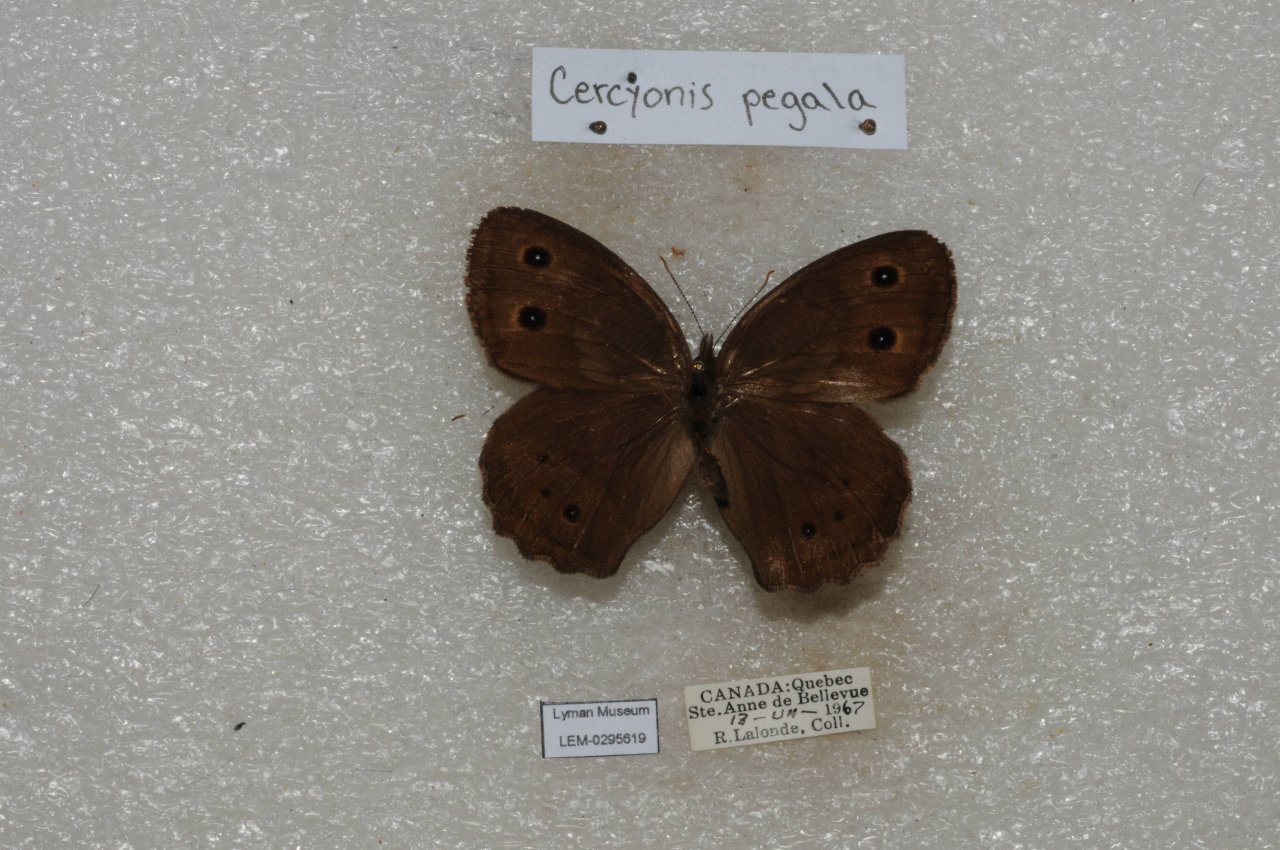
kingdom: Animalia
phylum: Arthropoda
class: Insecta
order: Lepidoptera
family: Nymphalidae
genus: Cercyonis
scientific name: Cercyonis pegala
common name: Common Wood-Nymph
